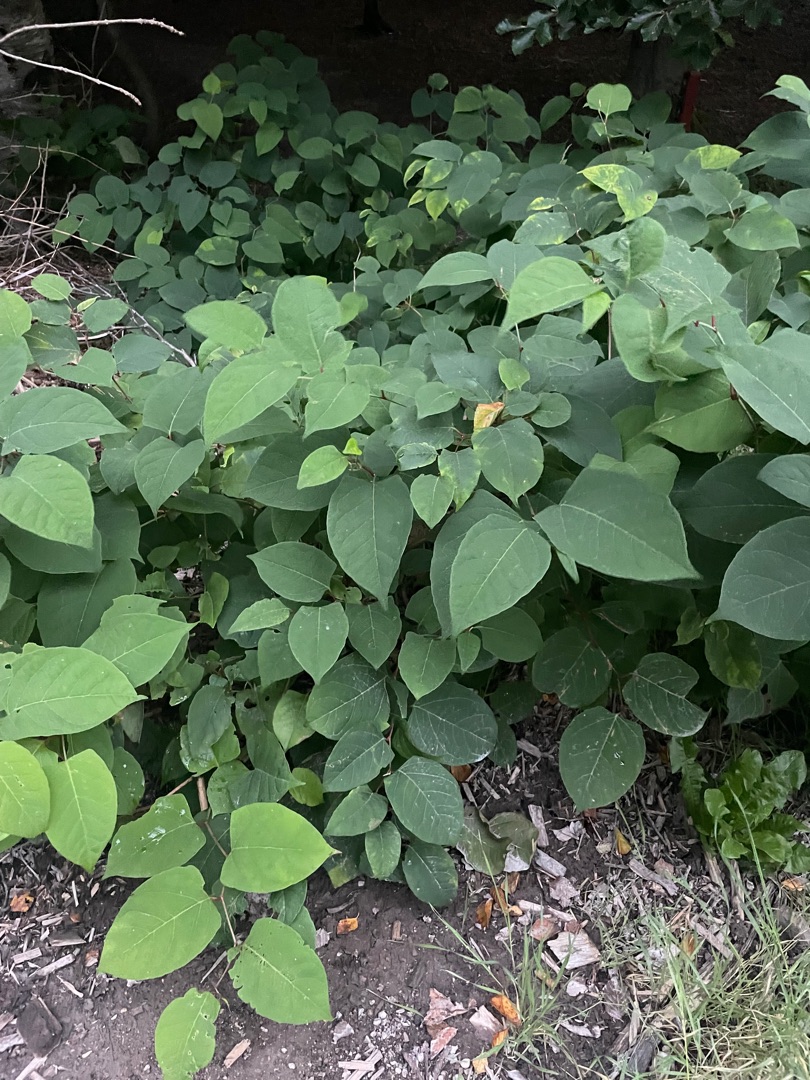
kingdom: Plantae
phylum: Tracheophyta
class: Magnoliopsida
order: Caryophyllales
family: Polygonaceae
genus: Reynoutria
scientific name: Reynoutria japonica
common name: Japan-pileurt
